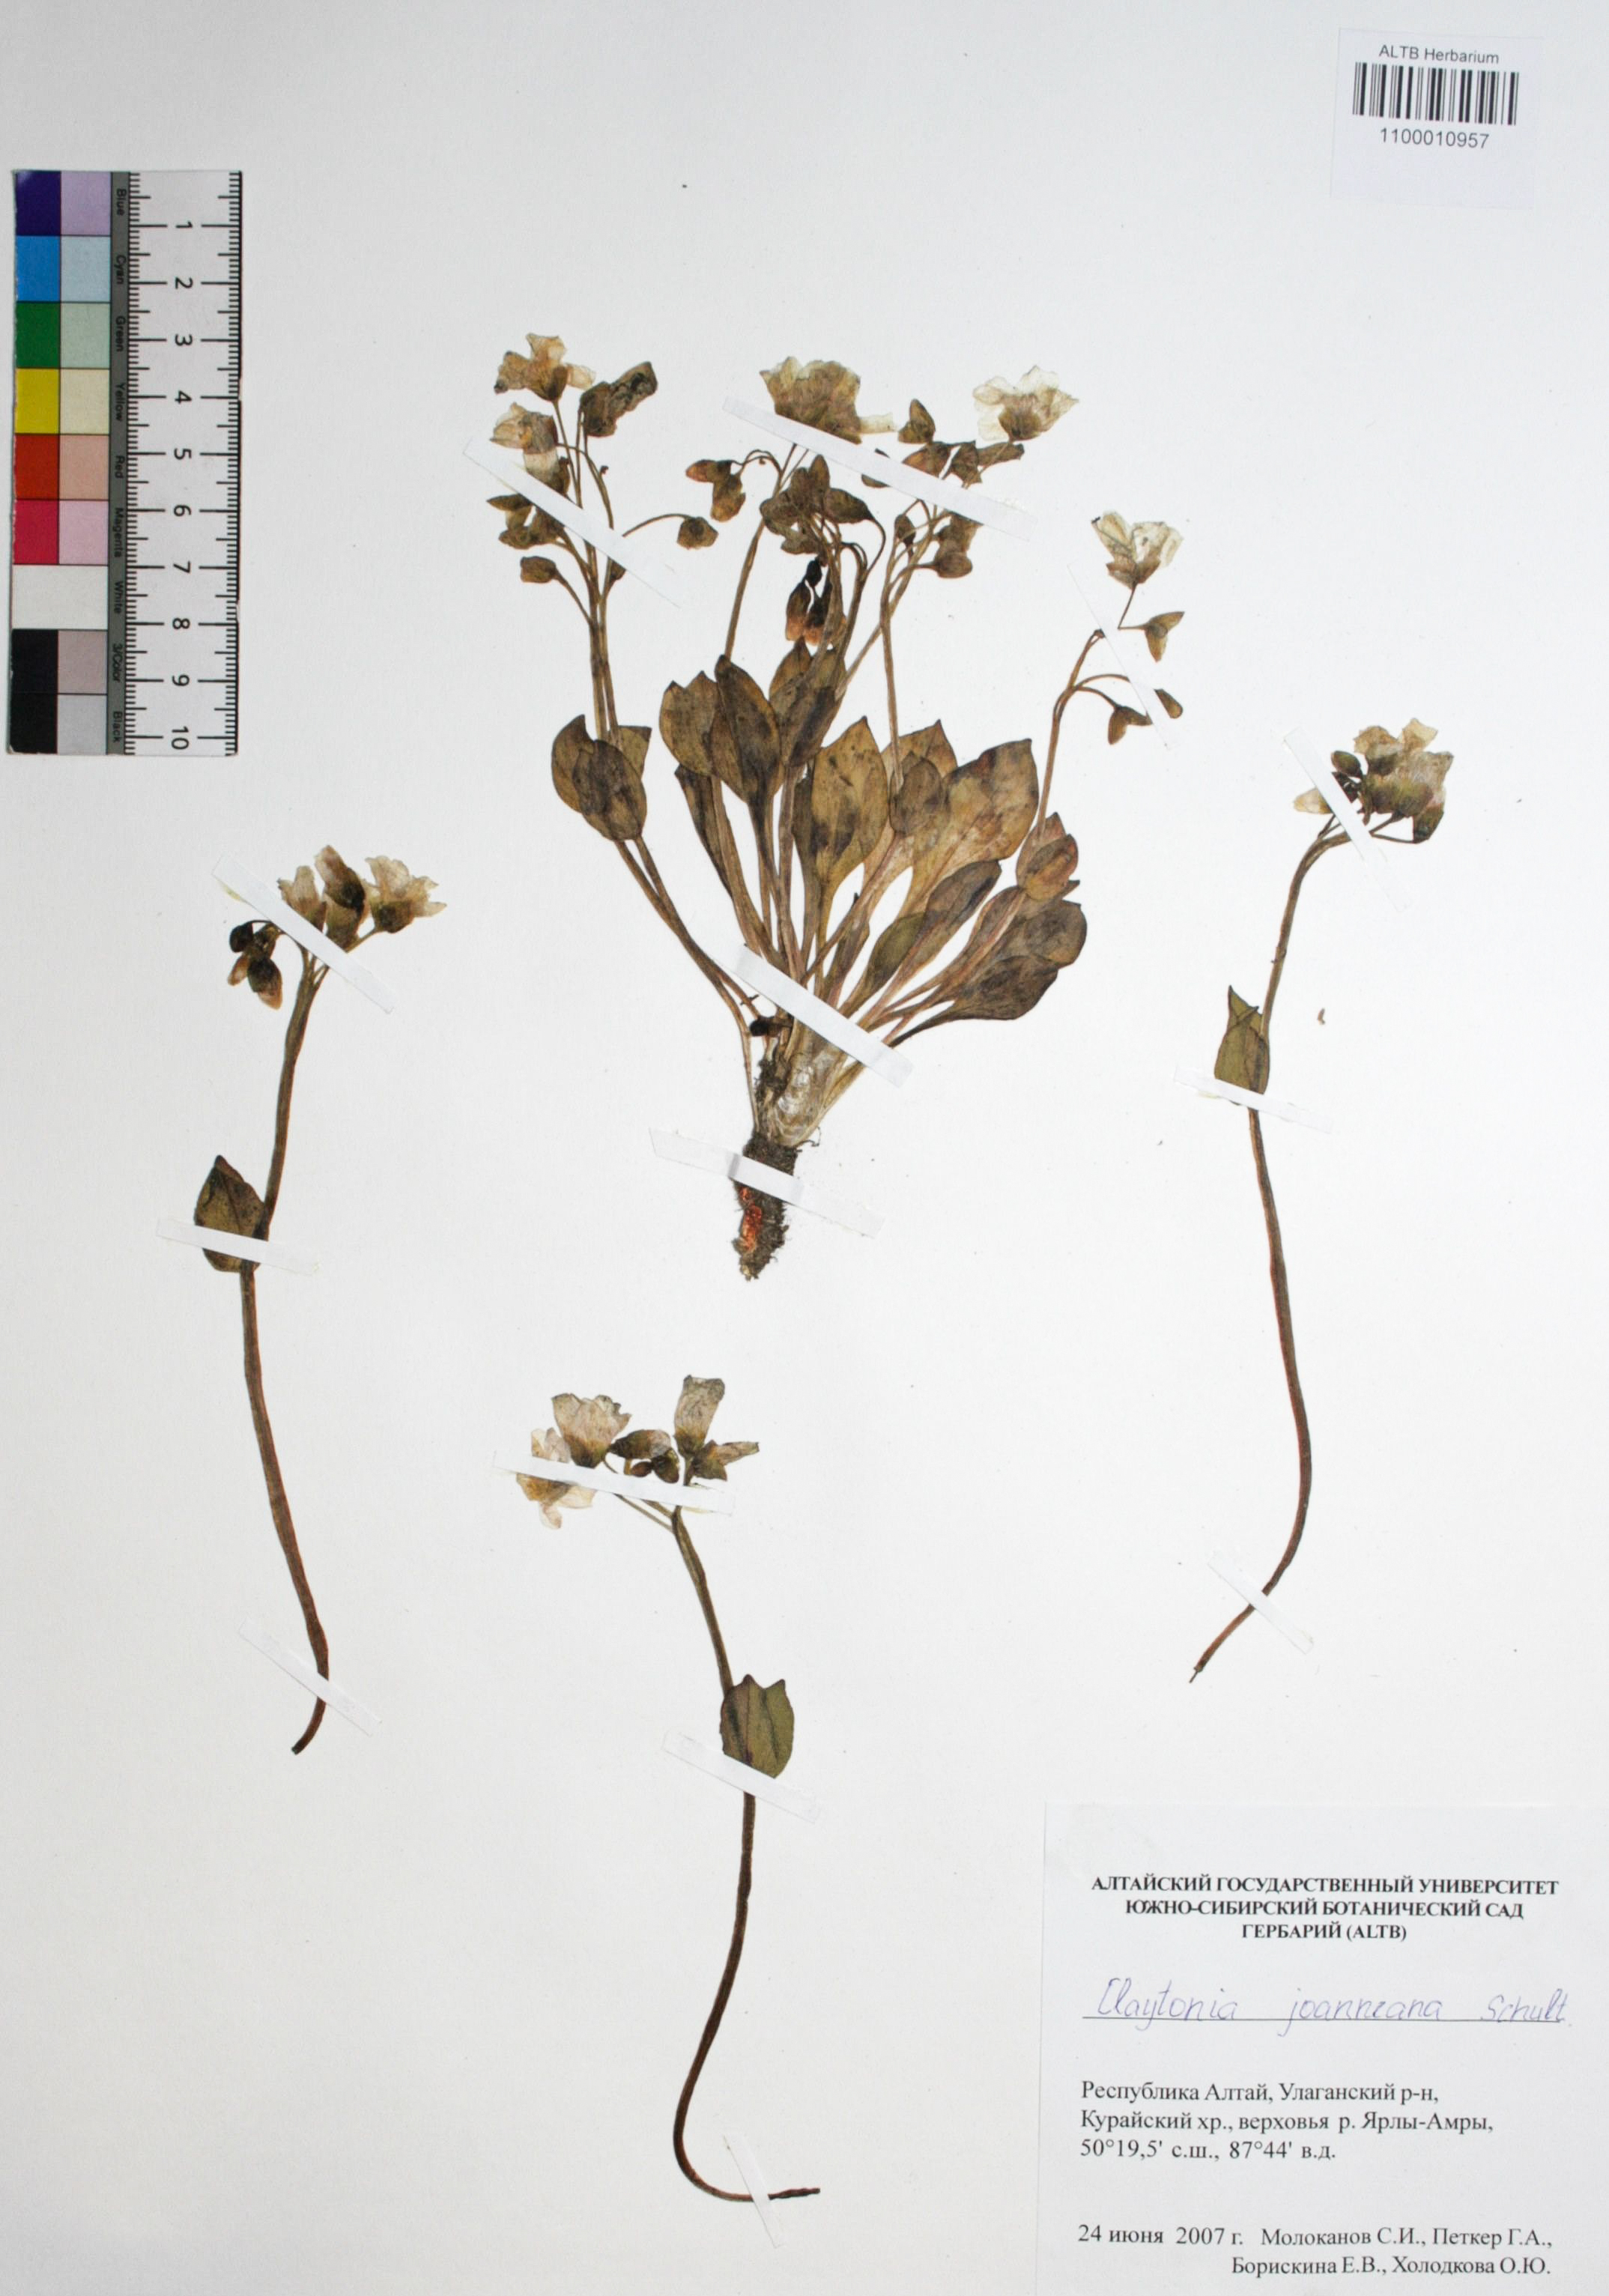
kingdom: Plantae
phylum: Tracheophyta
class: Magnoliopsida
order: Caryophyllales
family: Montiaceae
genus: Claytonia
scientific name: Claytonia joanneana
